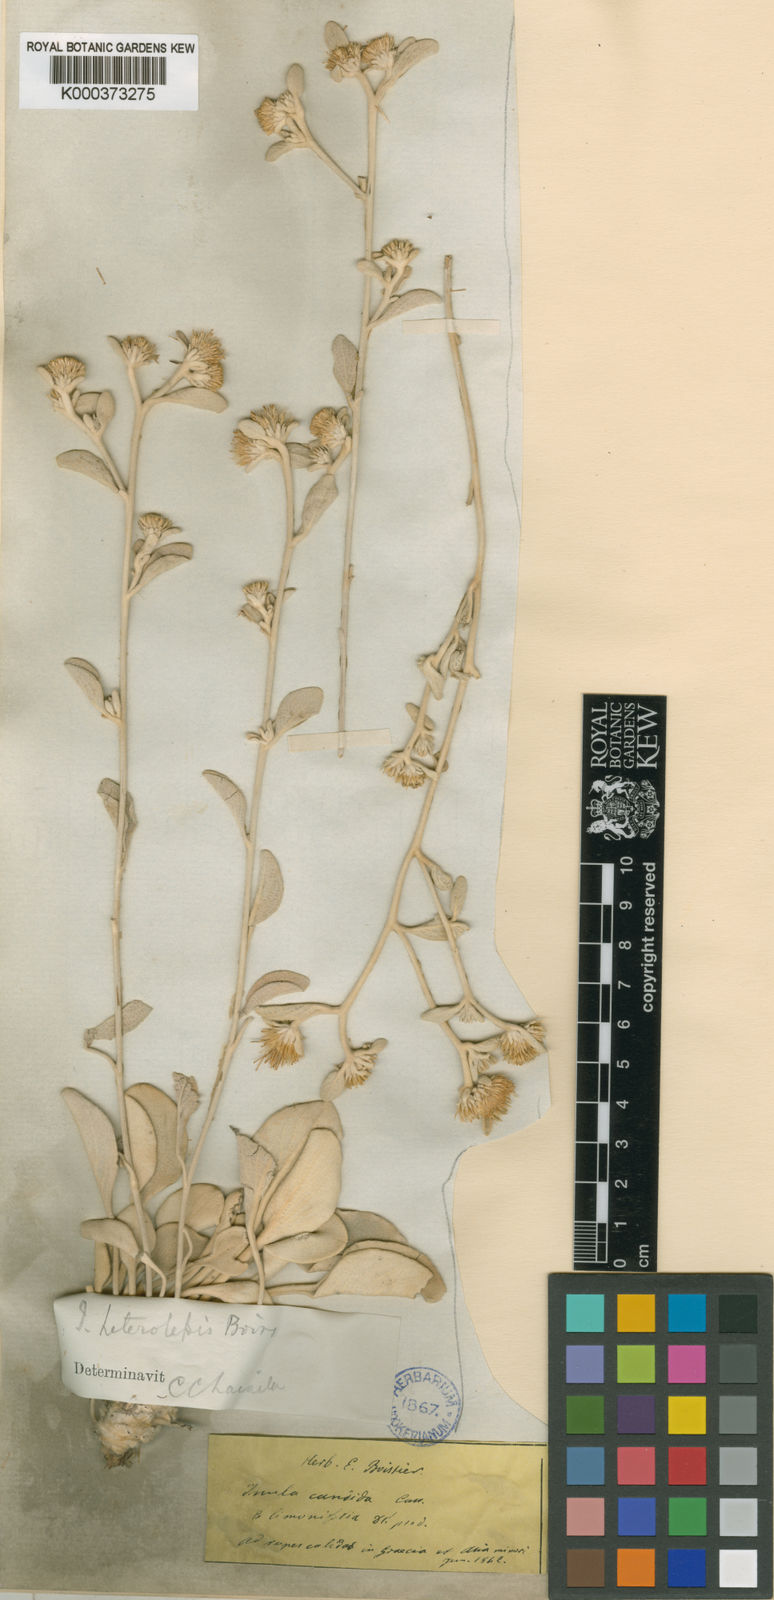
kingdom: Plantae
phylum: Tracheophyta
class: Magnoliopsida
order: Asterales
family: Asteraceae
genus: Pentanema
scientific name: Pentanema verbascifolium
